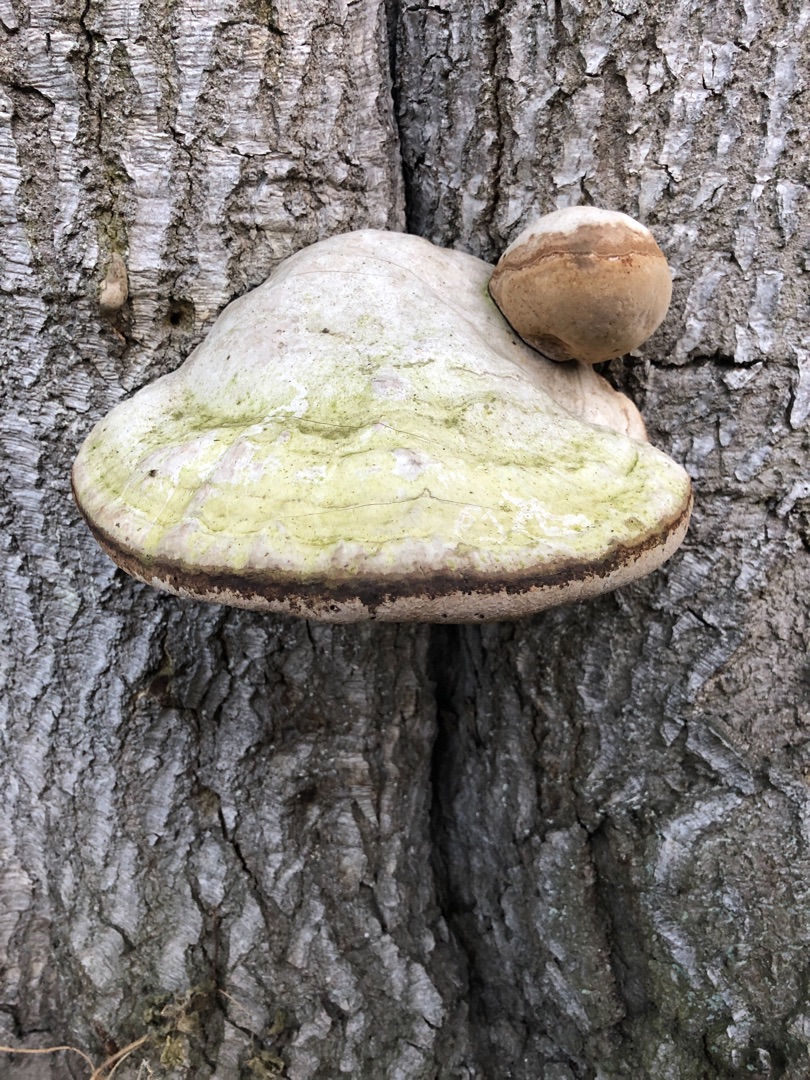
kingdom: Fungi
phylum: Basidiomycota
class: Agaricomycetes
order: Polyporales
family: Polyporaceae
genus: Fomes
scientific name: Fomes fomentarius
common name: Tøndersvamp
